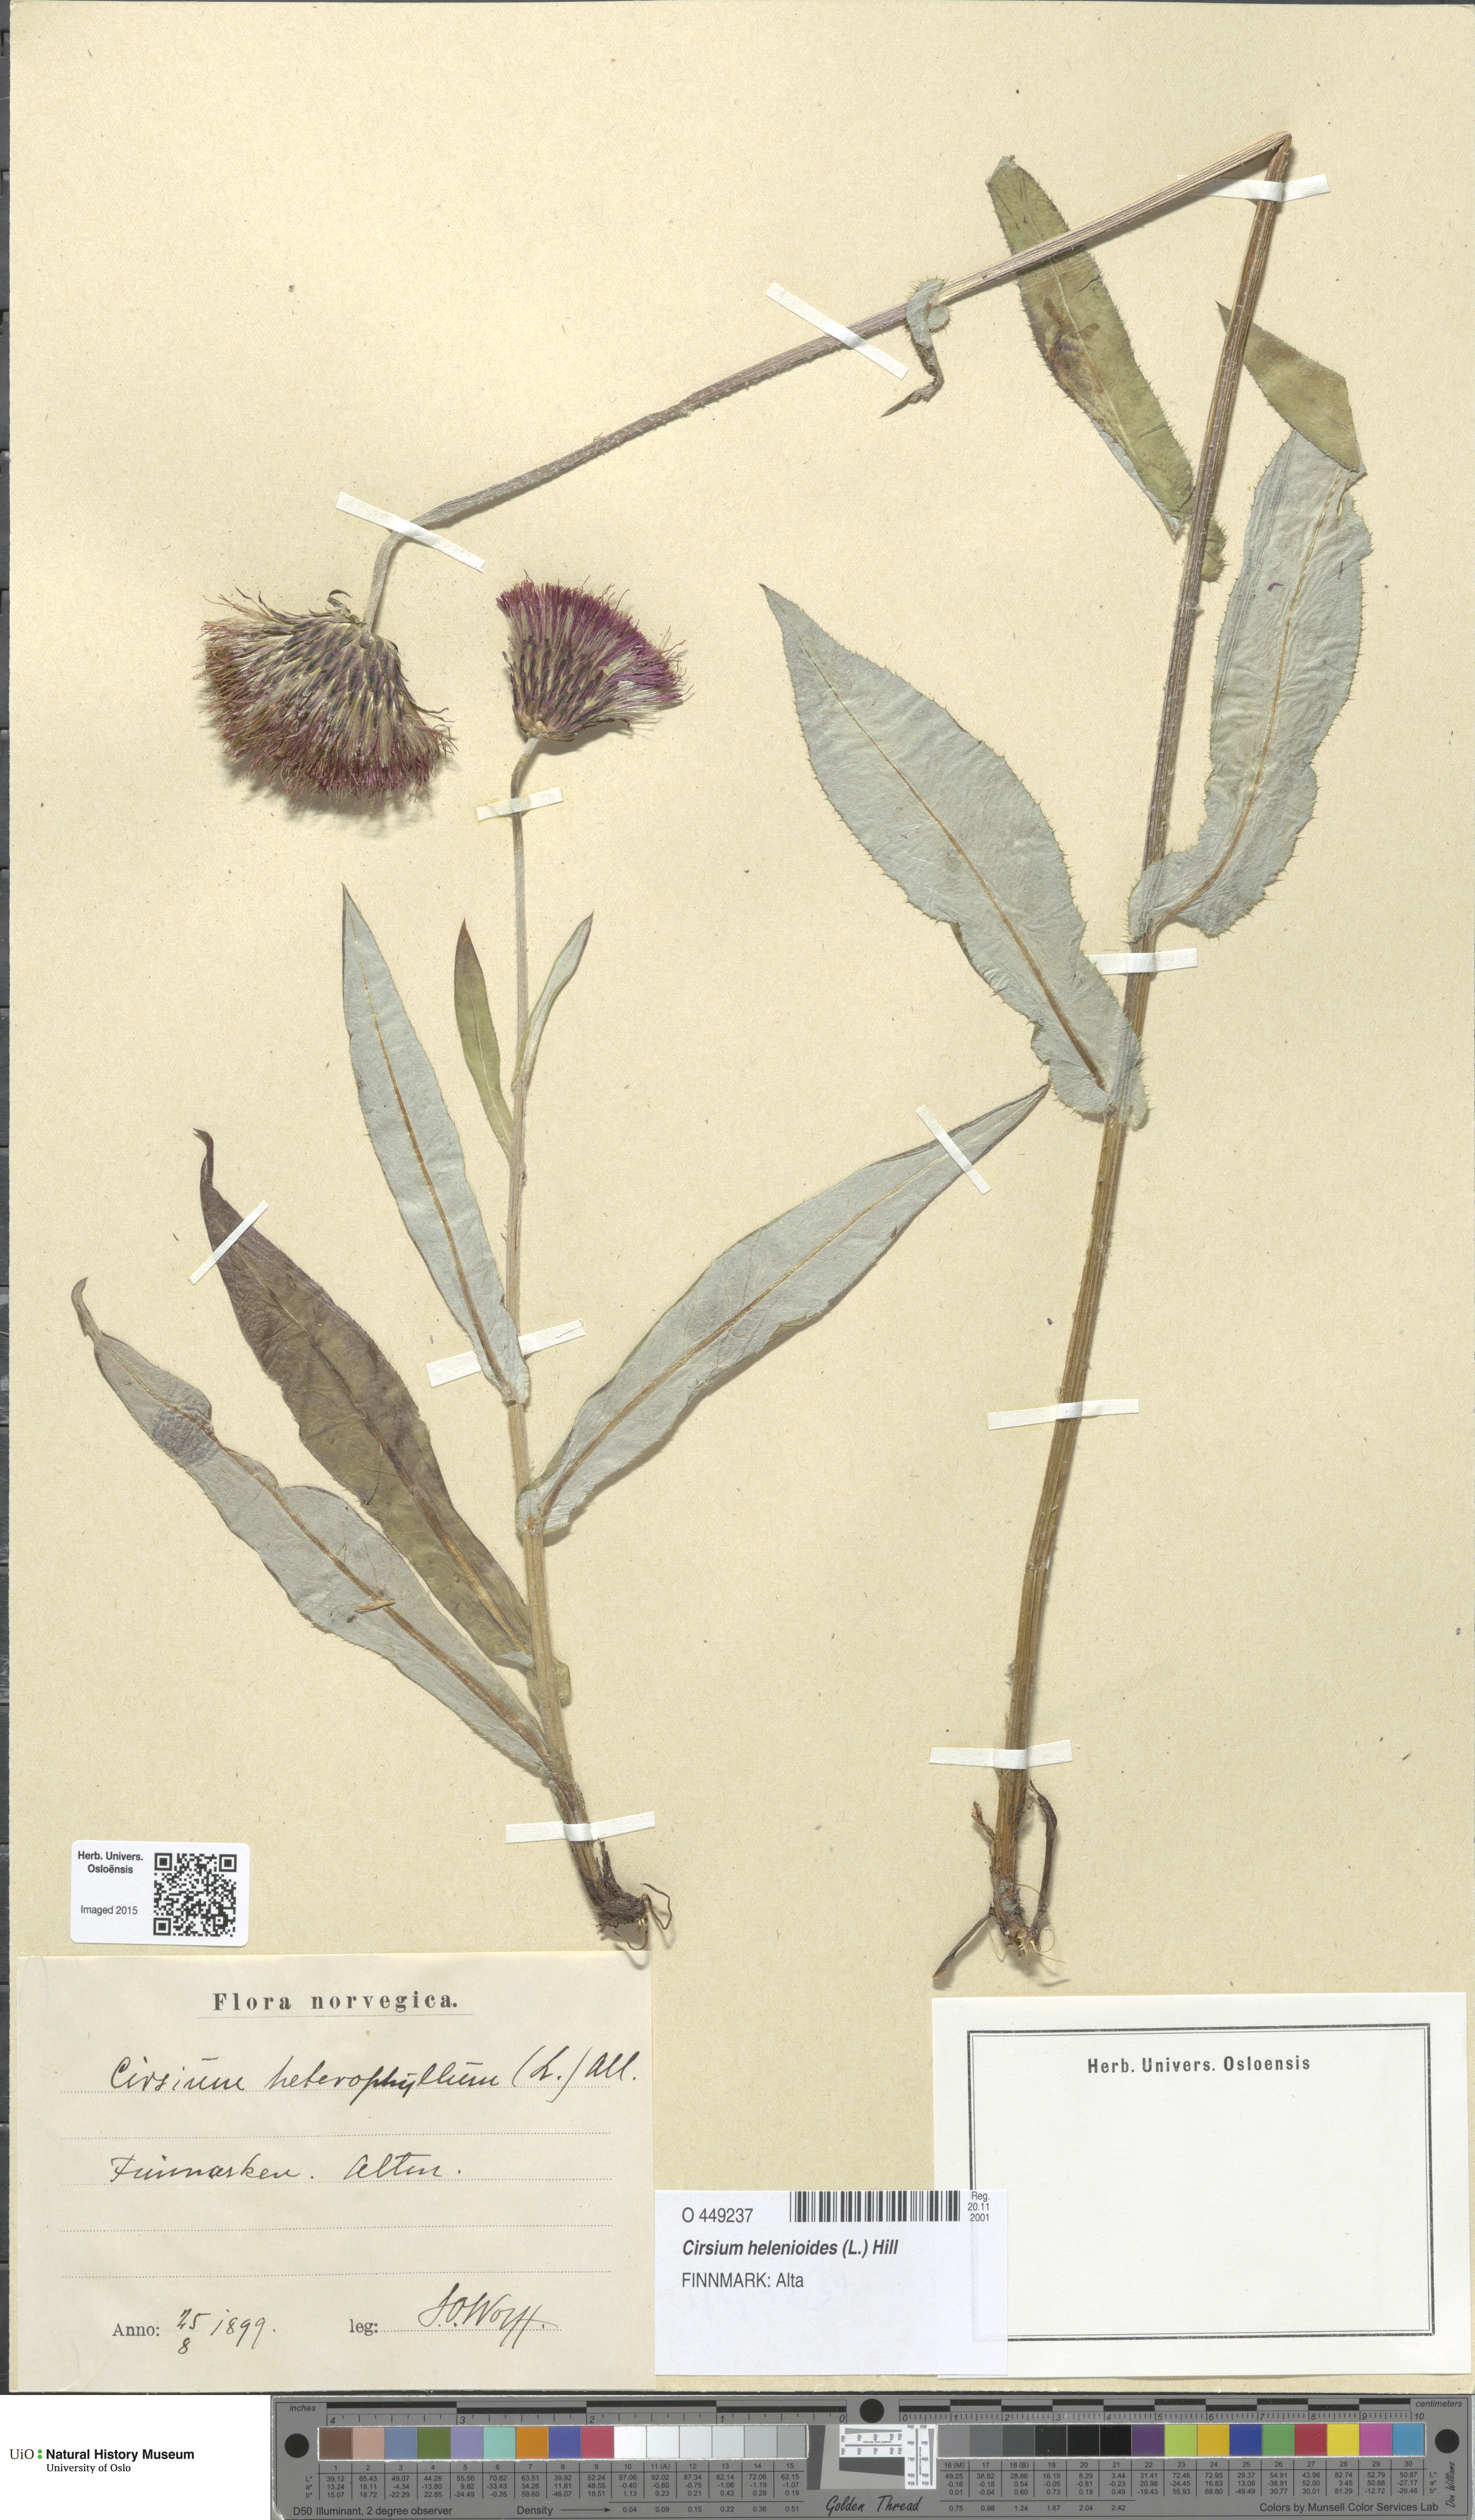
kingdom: Plantae
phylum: Tracheophyta
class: Magnoliopsida
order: Asterales
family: Asteraceae
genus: Cirsium
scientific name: Cirsium heterophyllum
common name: Melancholy thistle
